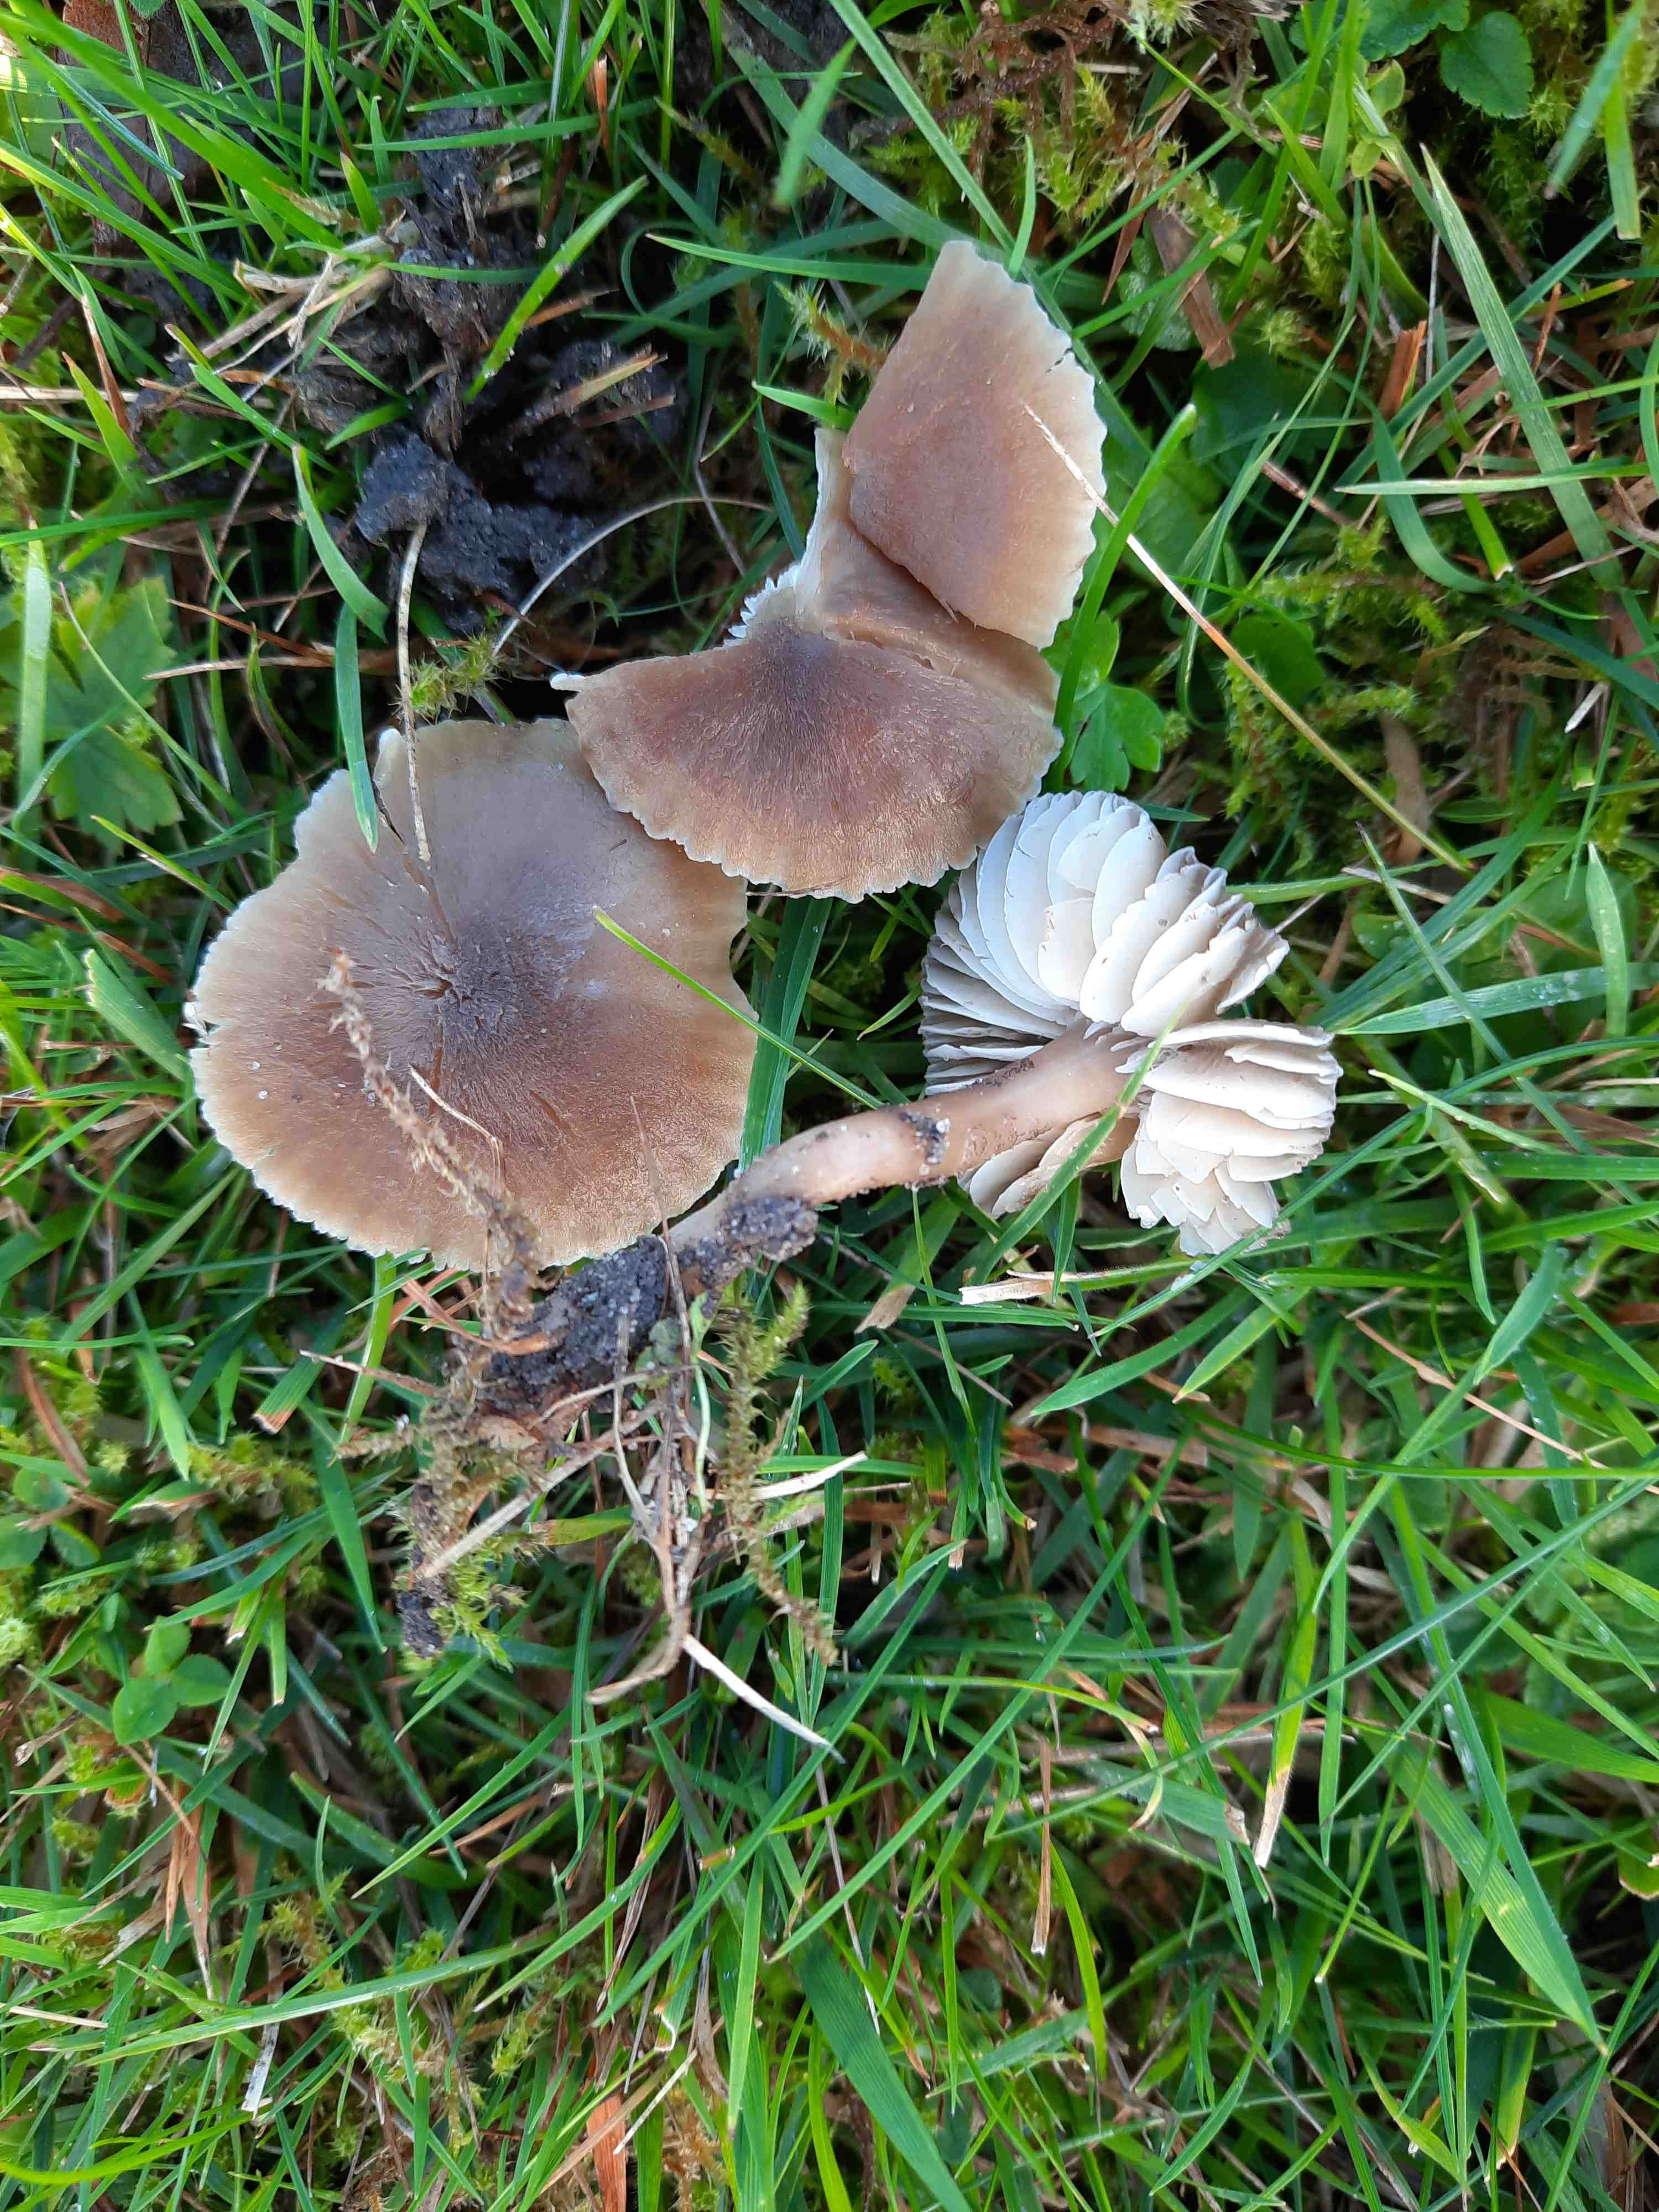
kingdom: Fungi
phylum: Basidiomycota
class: Agaricomycetes
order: Agaricales
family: Hygrophoraceae
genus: Neohygrocybe
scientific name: Neohygrocybe nitrata
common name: stinkende vokshat
